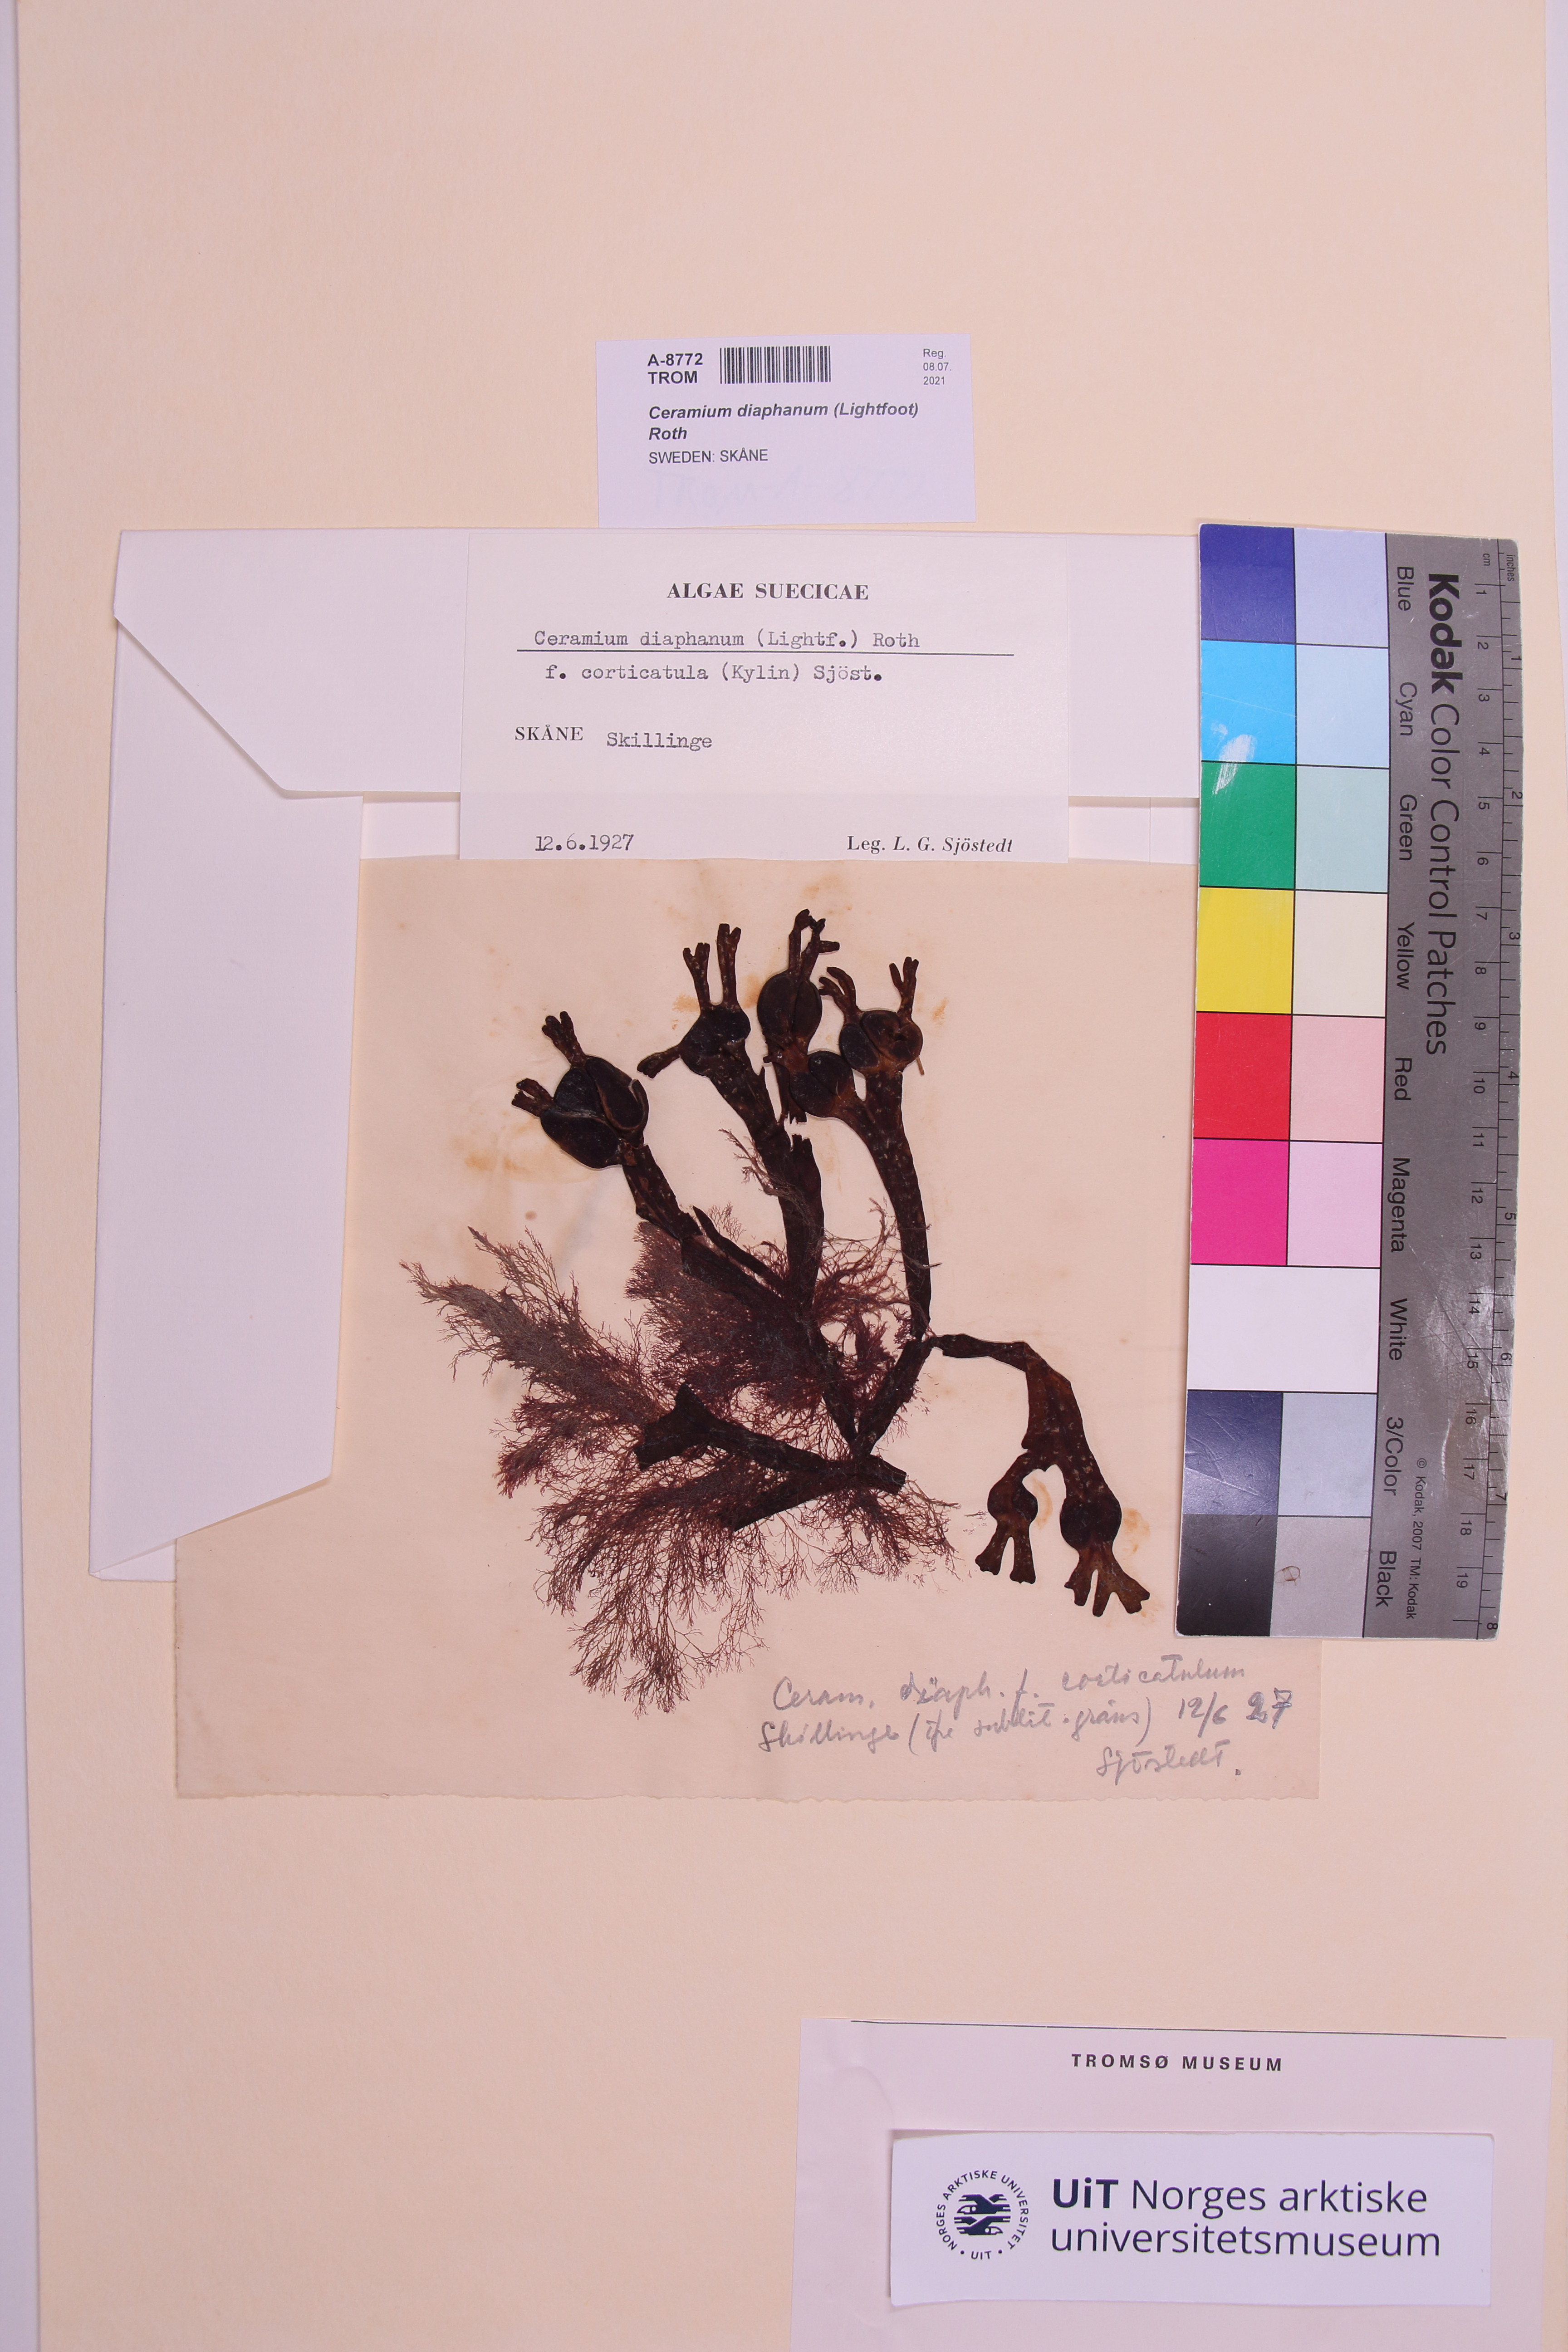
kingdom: Plantae
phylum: Rhodophyta
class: Florideophyceae
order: Ceramiales
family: Ceramiaceae
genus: Ceramium
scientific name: Ceramium diaphanum
